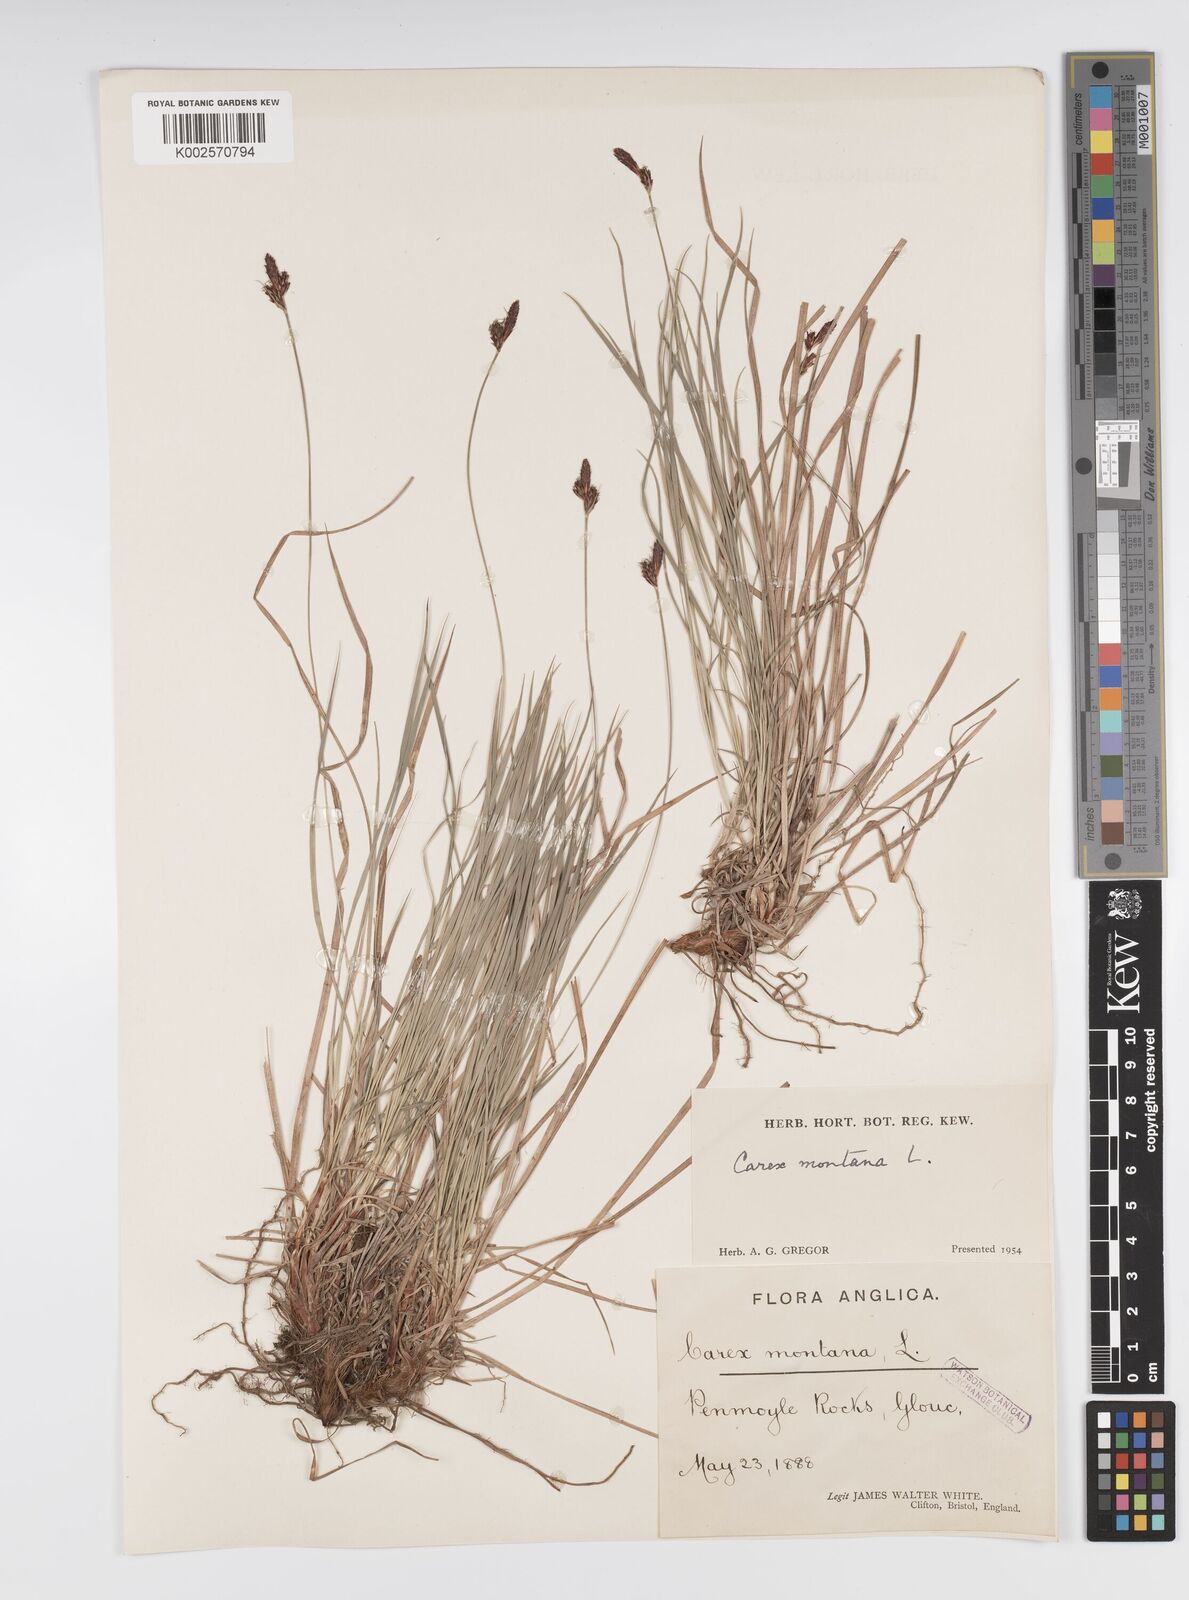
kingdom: Plantae
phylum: Tracheophyta
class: Liliopsida
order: Poales
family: Cyperaceae
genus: Carex
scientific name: Carex montana
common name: Soft-leaved sedge
